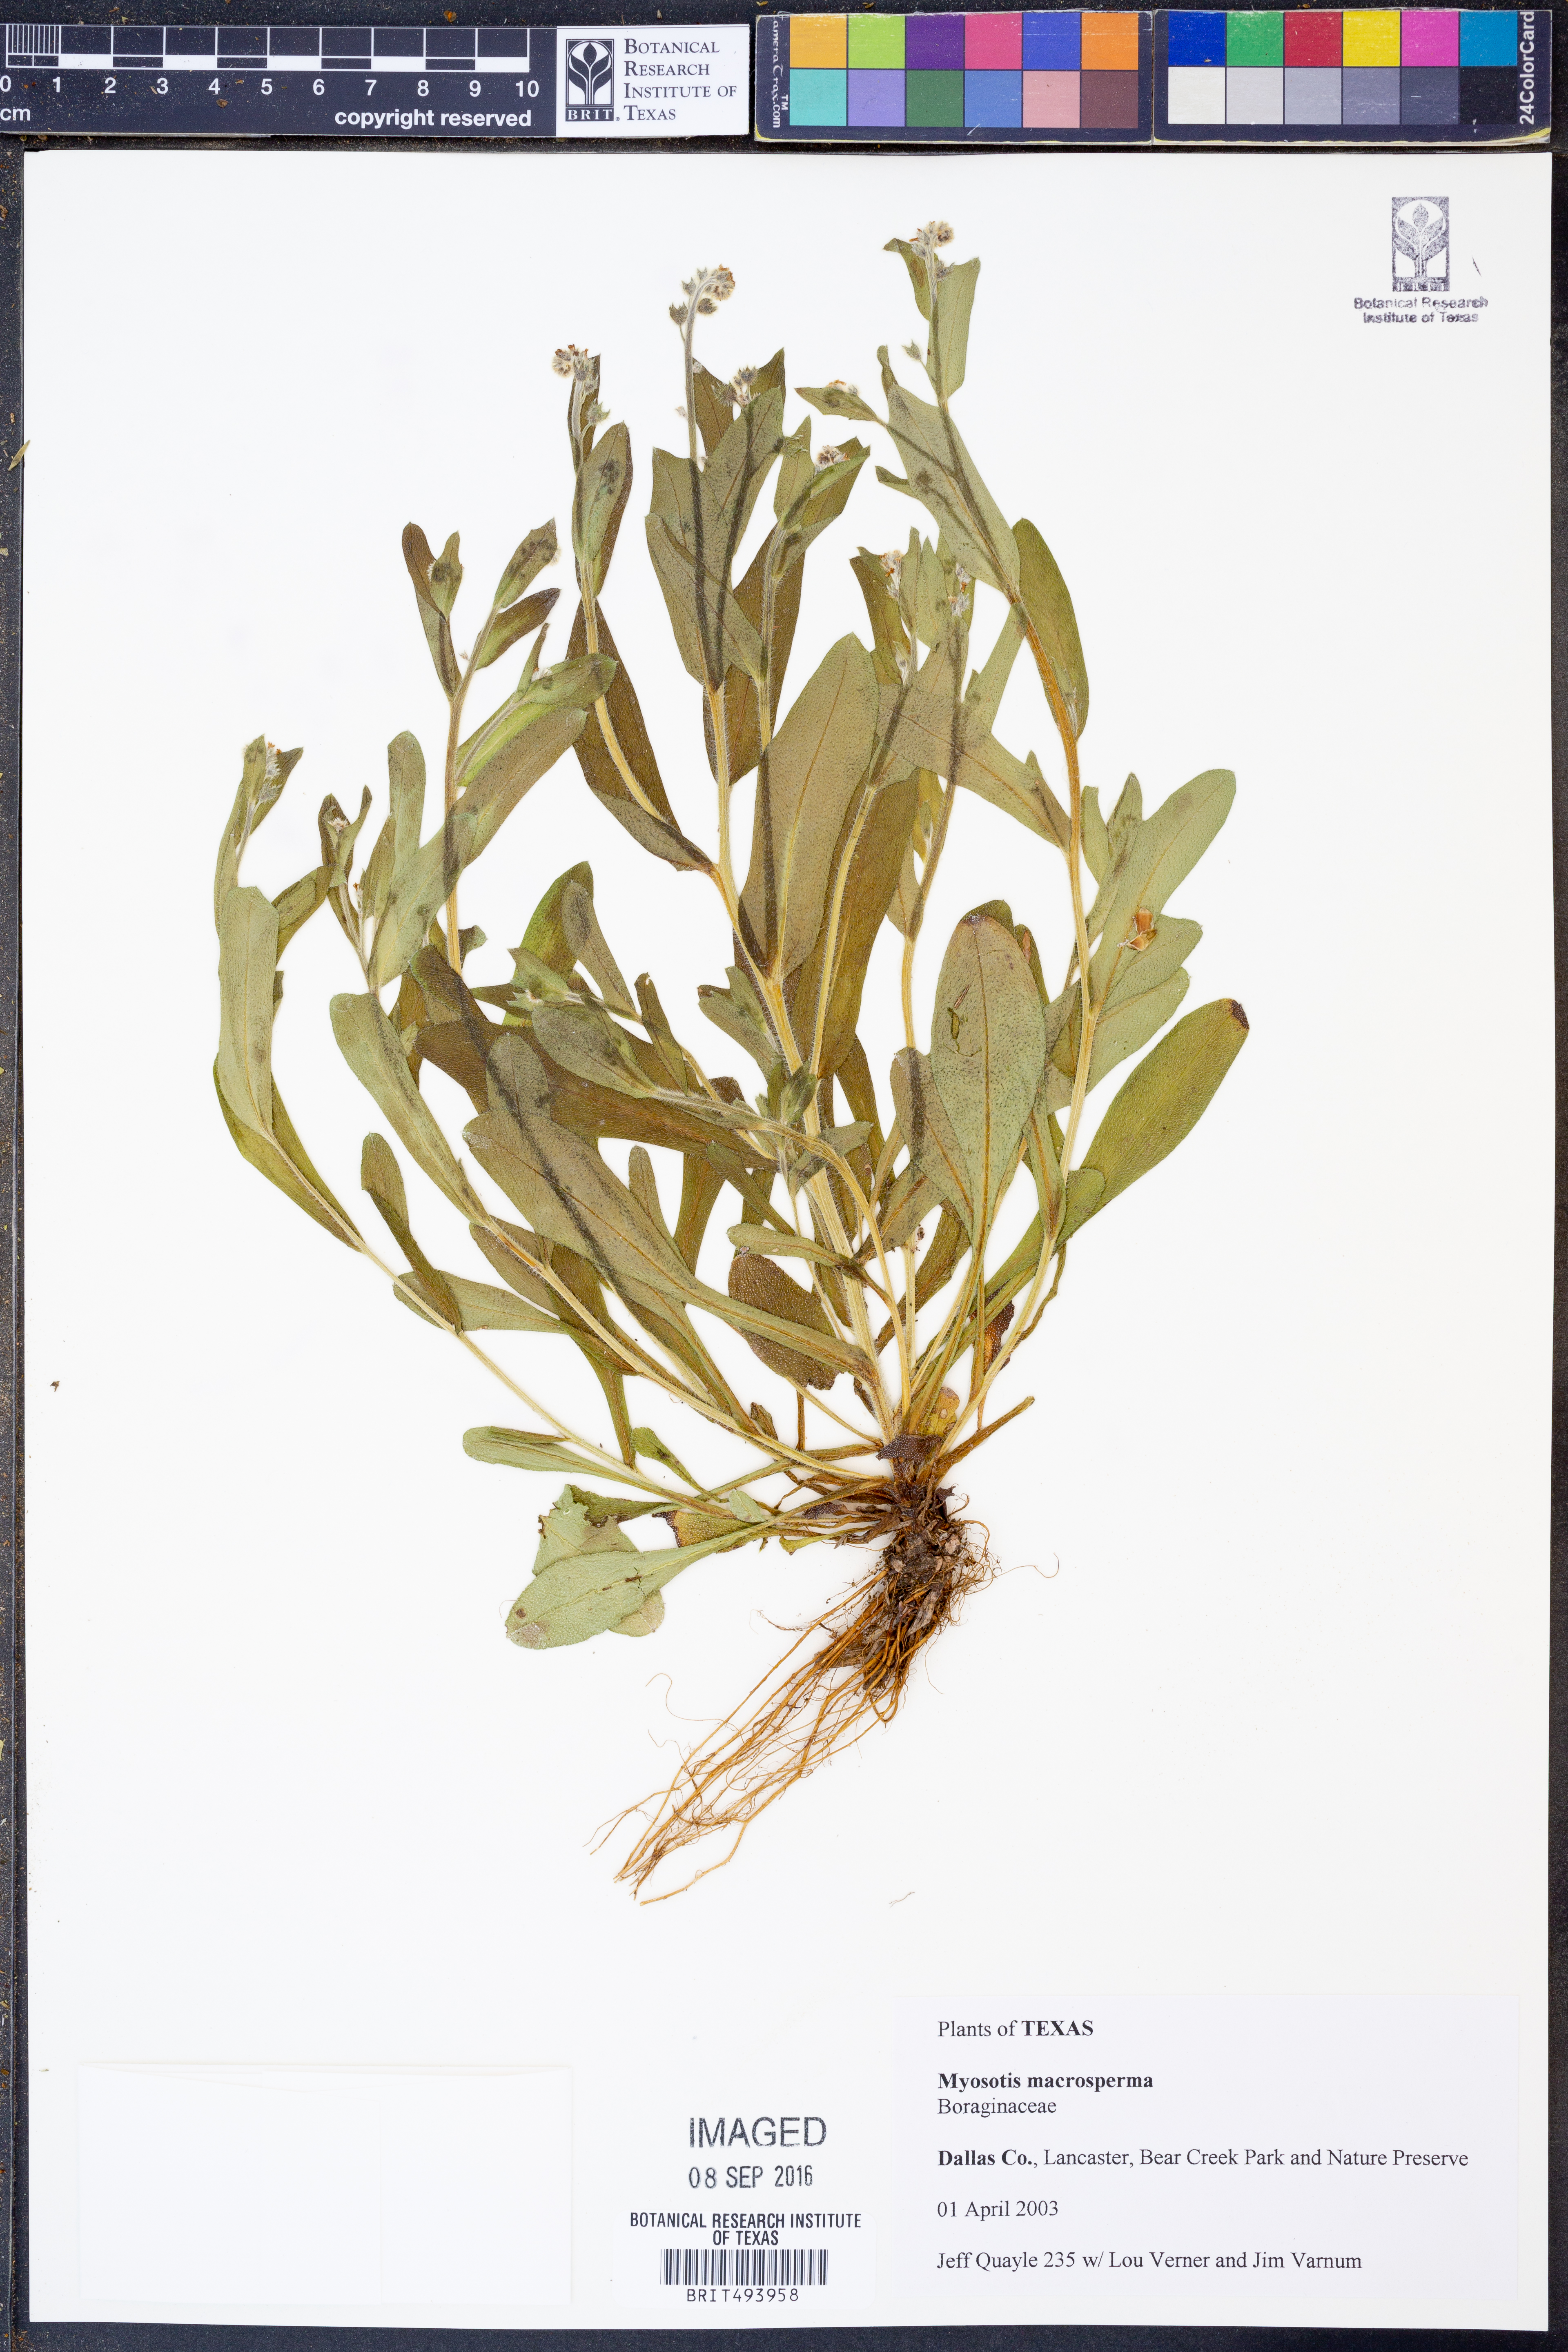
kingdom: Plantae
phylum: Tracheophyta
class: Magnoliopsida
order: Boraginales
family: Boraginaceae
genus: Myosotis
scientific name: Myosotis macrosperma
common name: Large-seed forget-me-not
